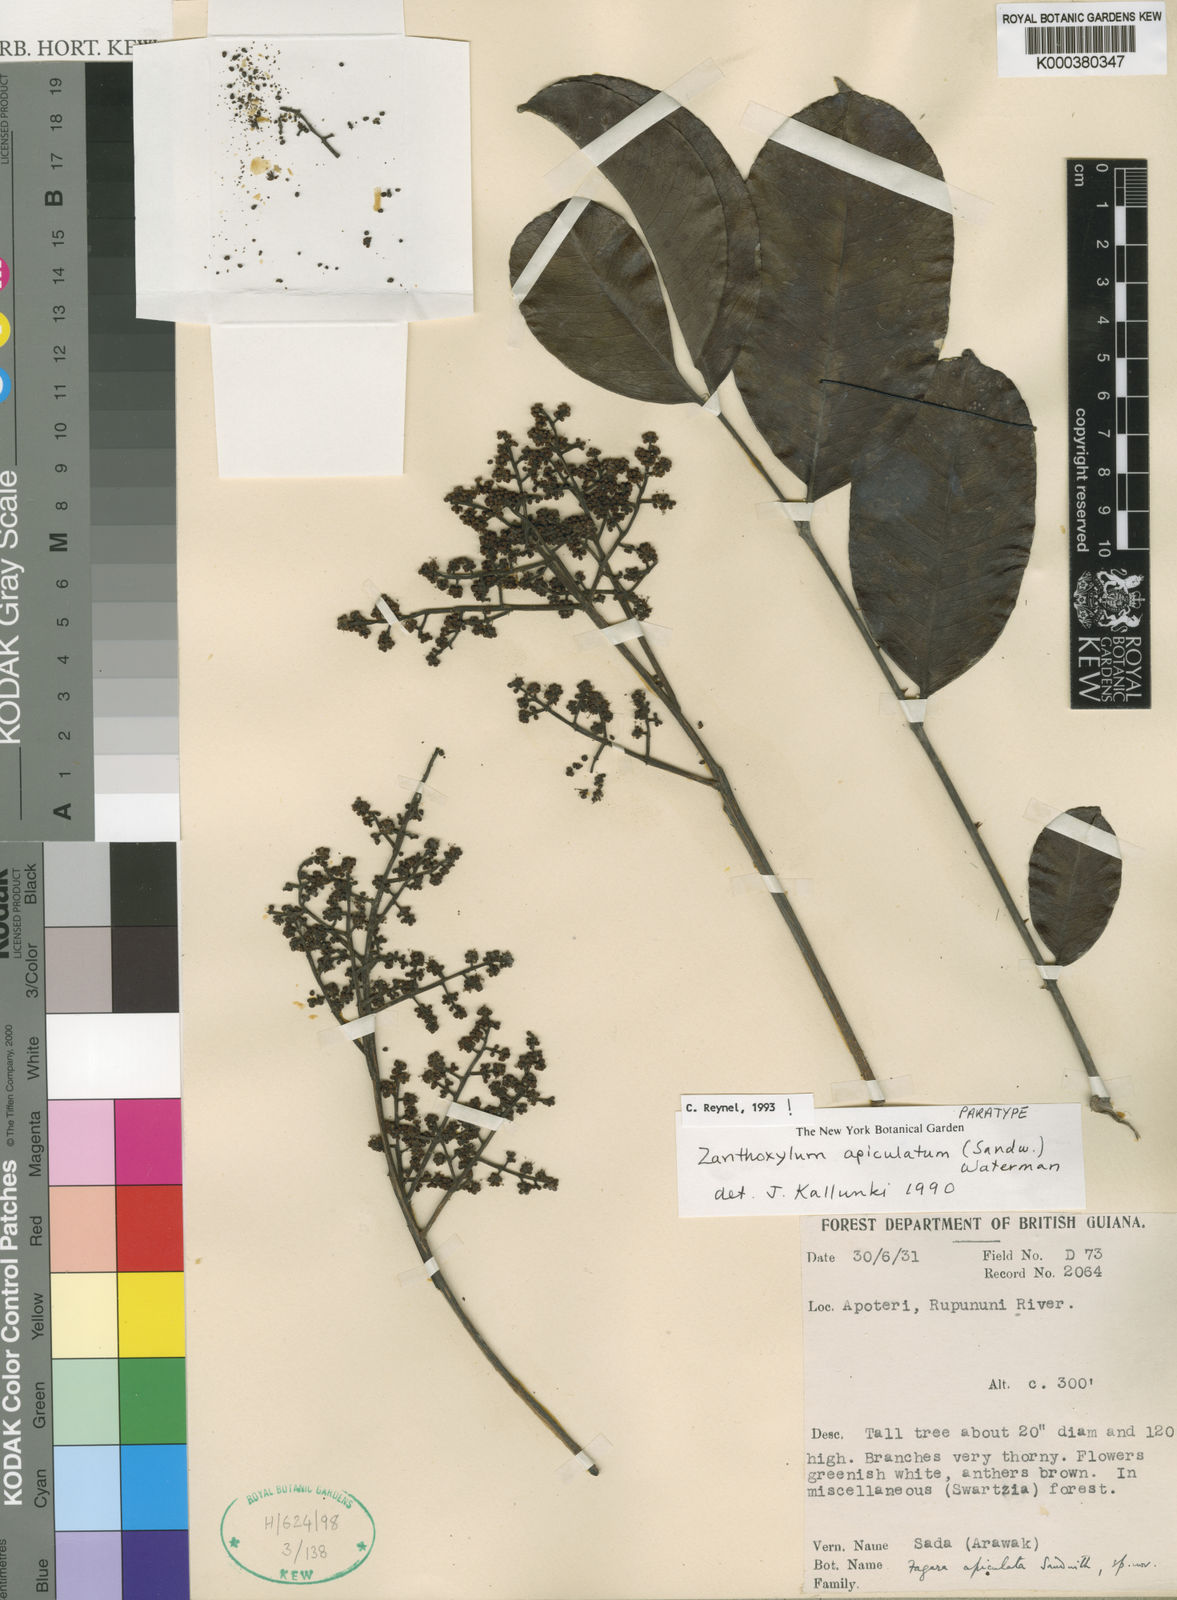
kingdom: Plantae
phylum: Tracheophyta
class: Magnoliopsida
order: Sapindales
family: Rutaceae
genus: Zanthoxylum
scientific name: Zanthoxylum apiculatum
